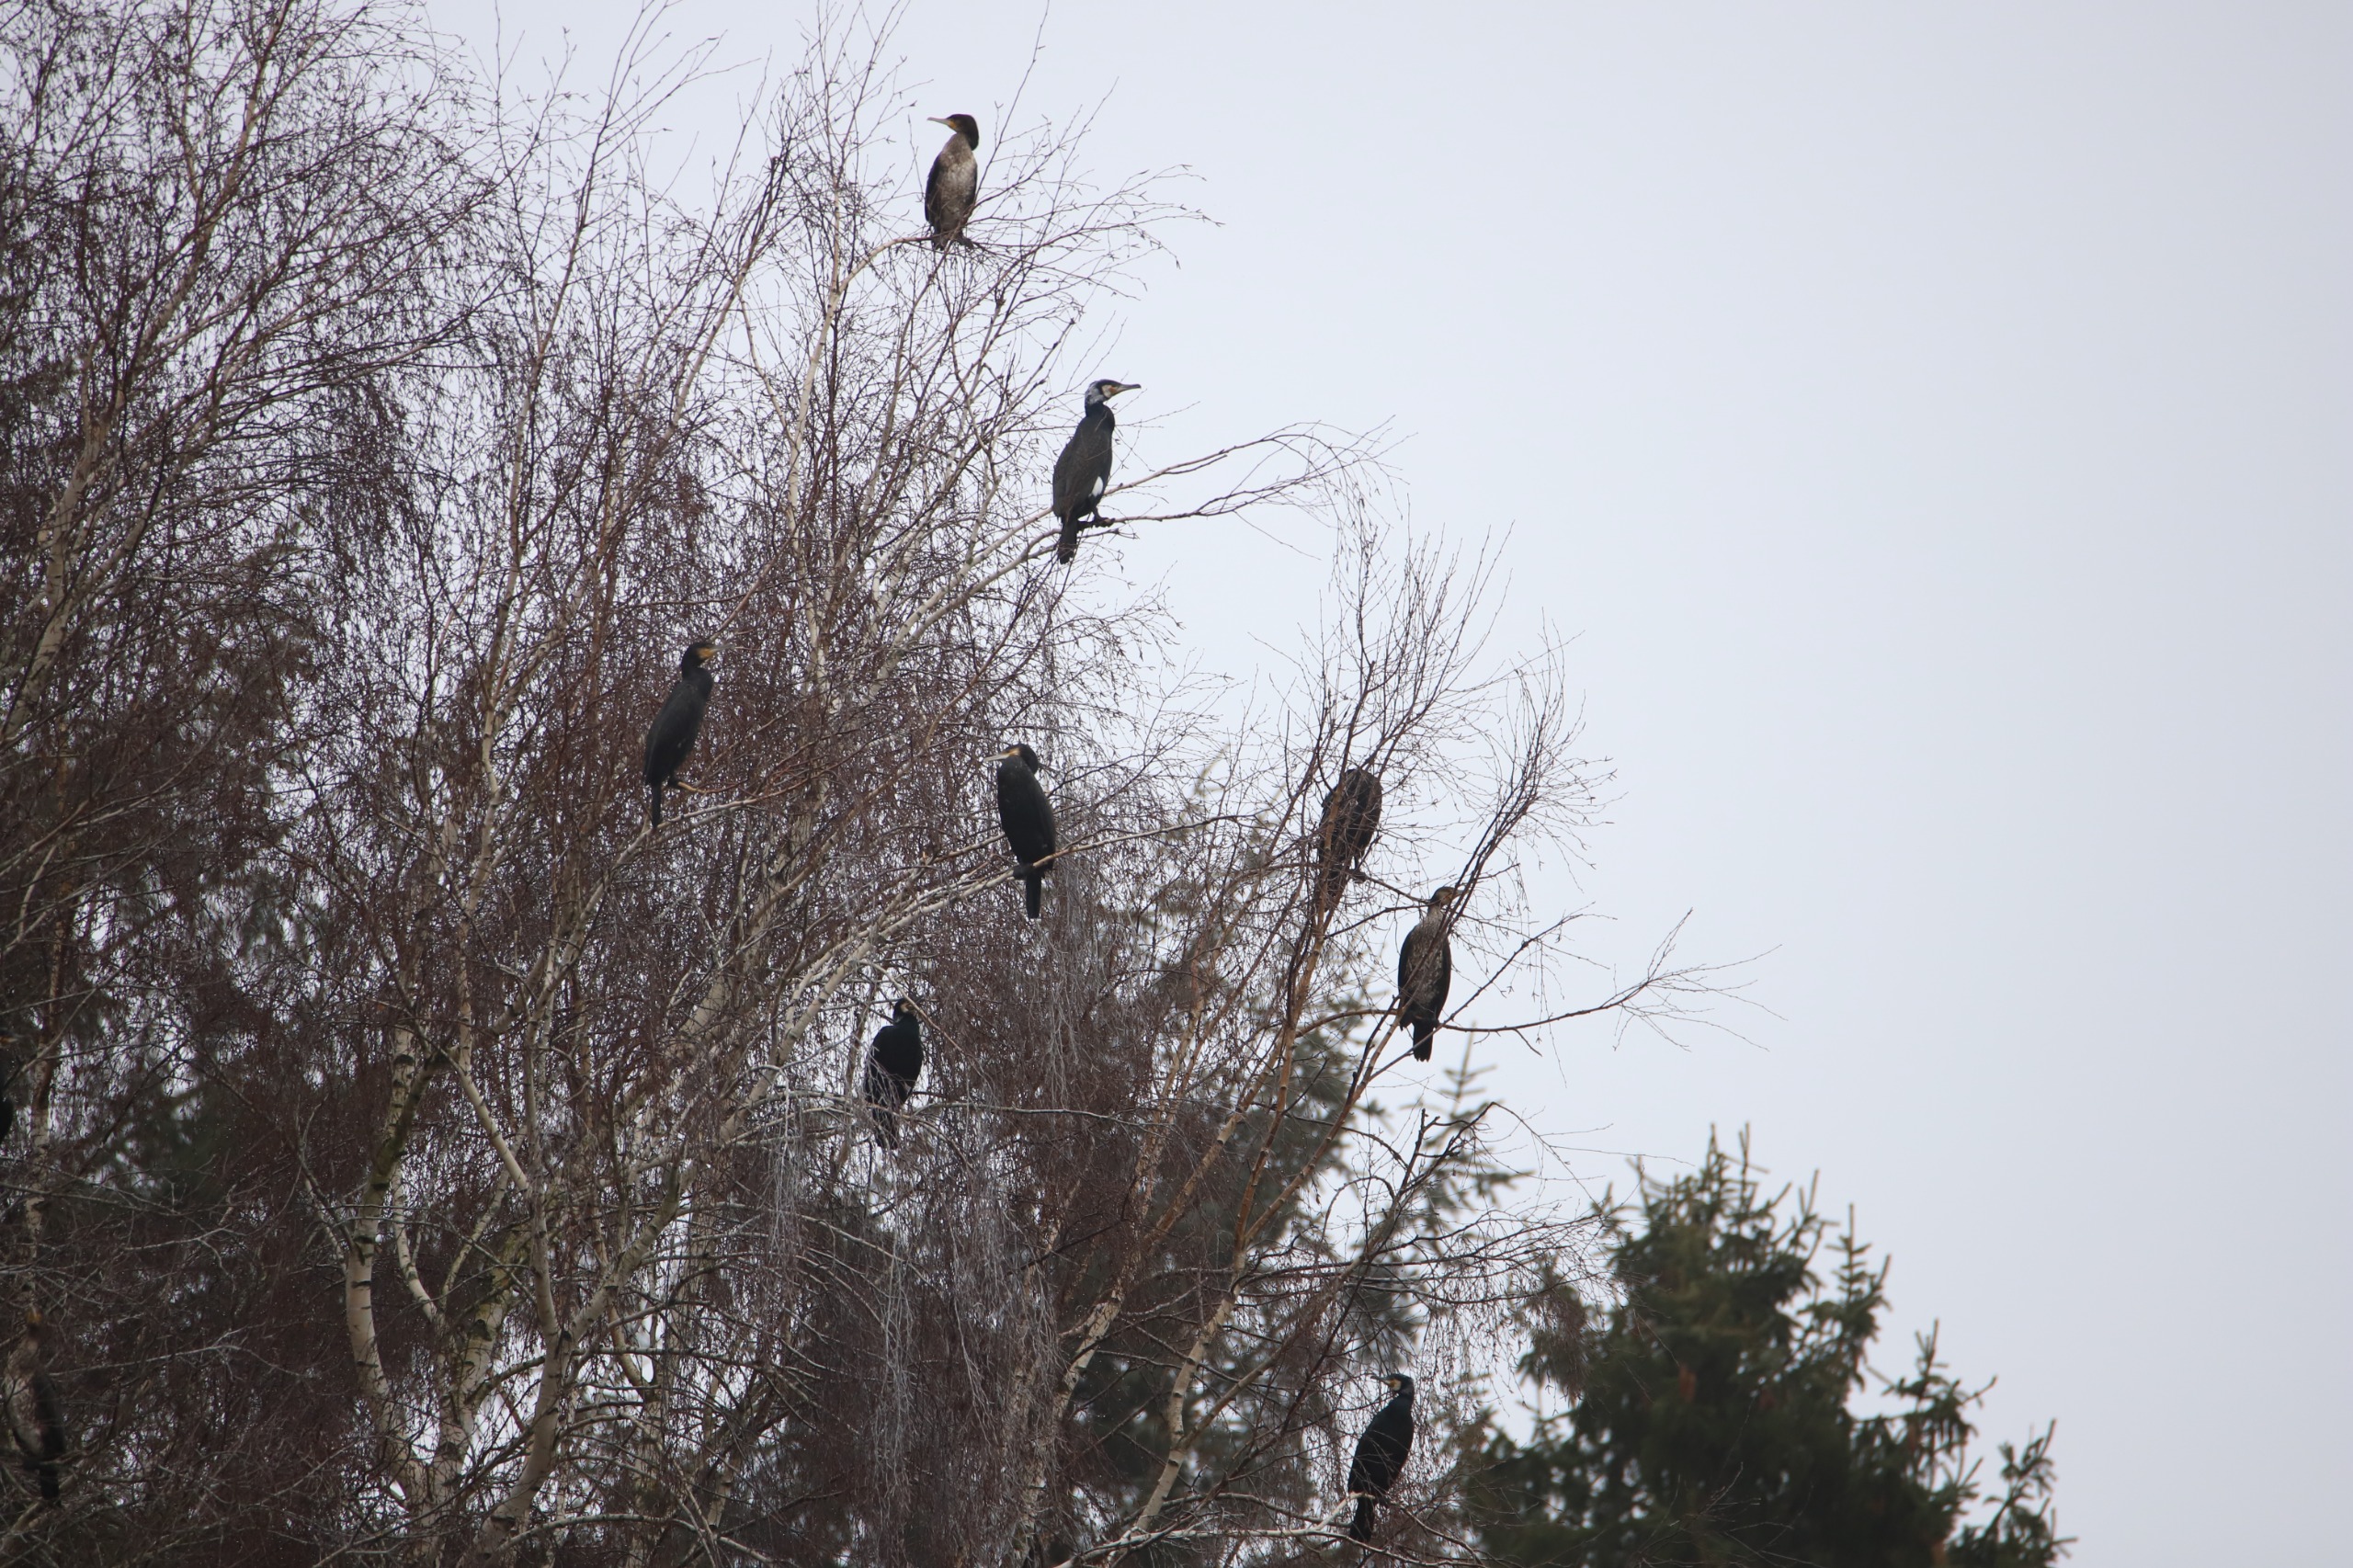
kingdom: Animalia
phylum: Chordata
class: Aves
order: Suliformes
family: Phalacrocoracidae
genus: Phalacrocorax
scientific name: Phalacrocorax carbo
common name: Skarv
